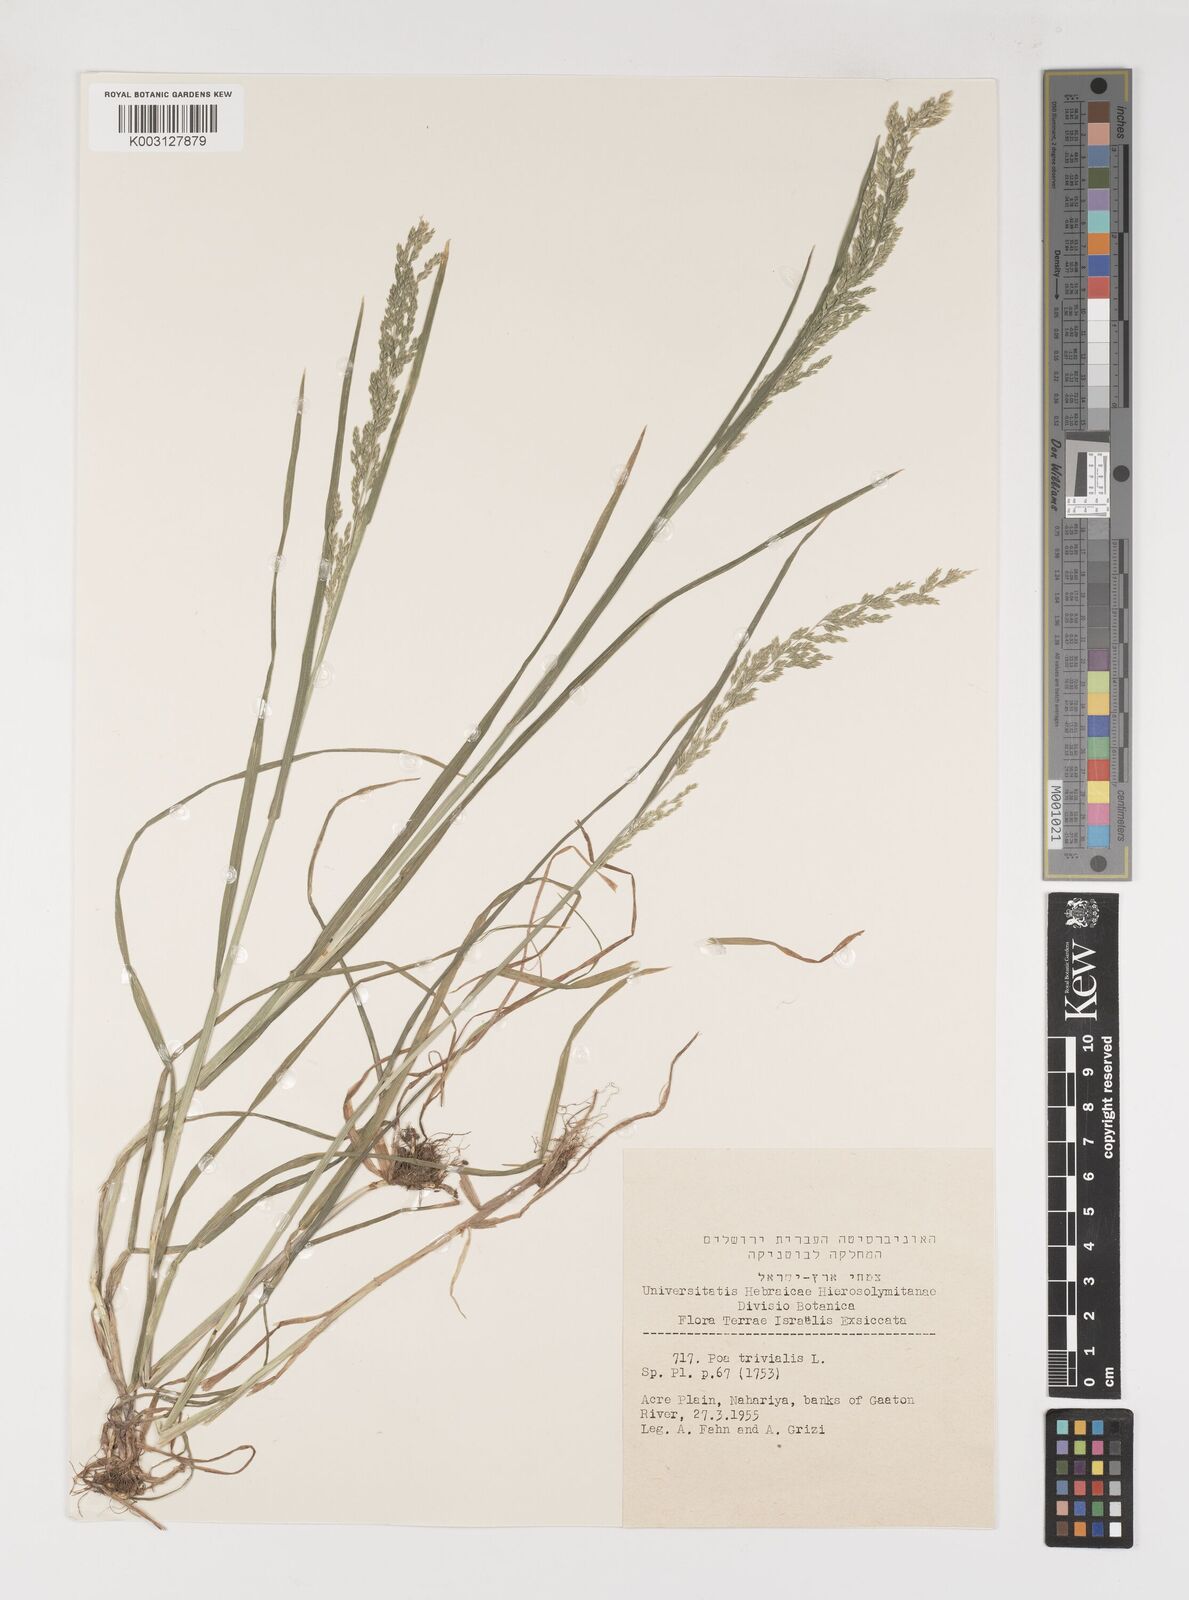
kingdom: Plantae
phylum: Tracheophyta
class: Liliopsida
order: Poales
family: Poaceae
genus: Poa
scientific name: Poa trivialis
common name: Rough bluegrass
